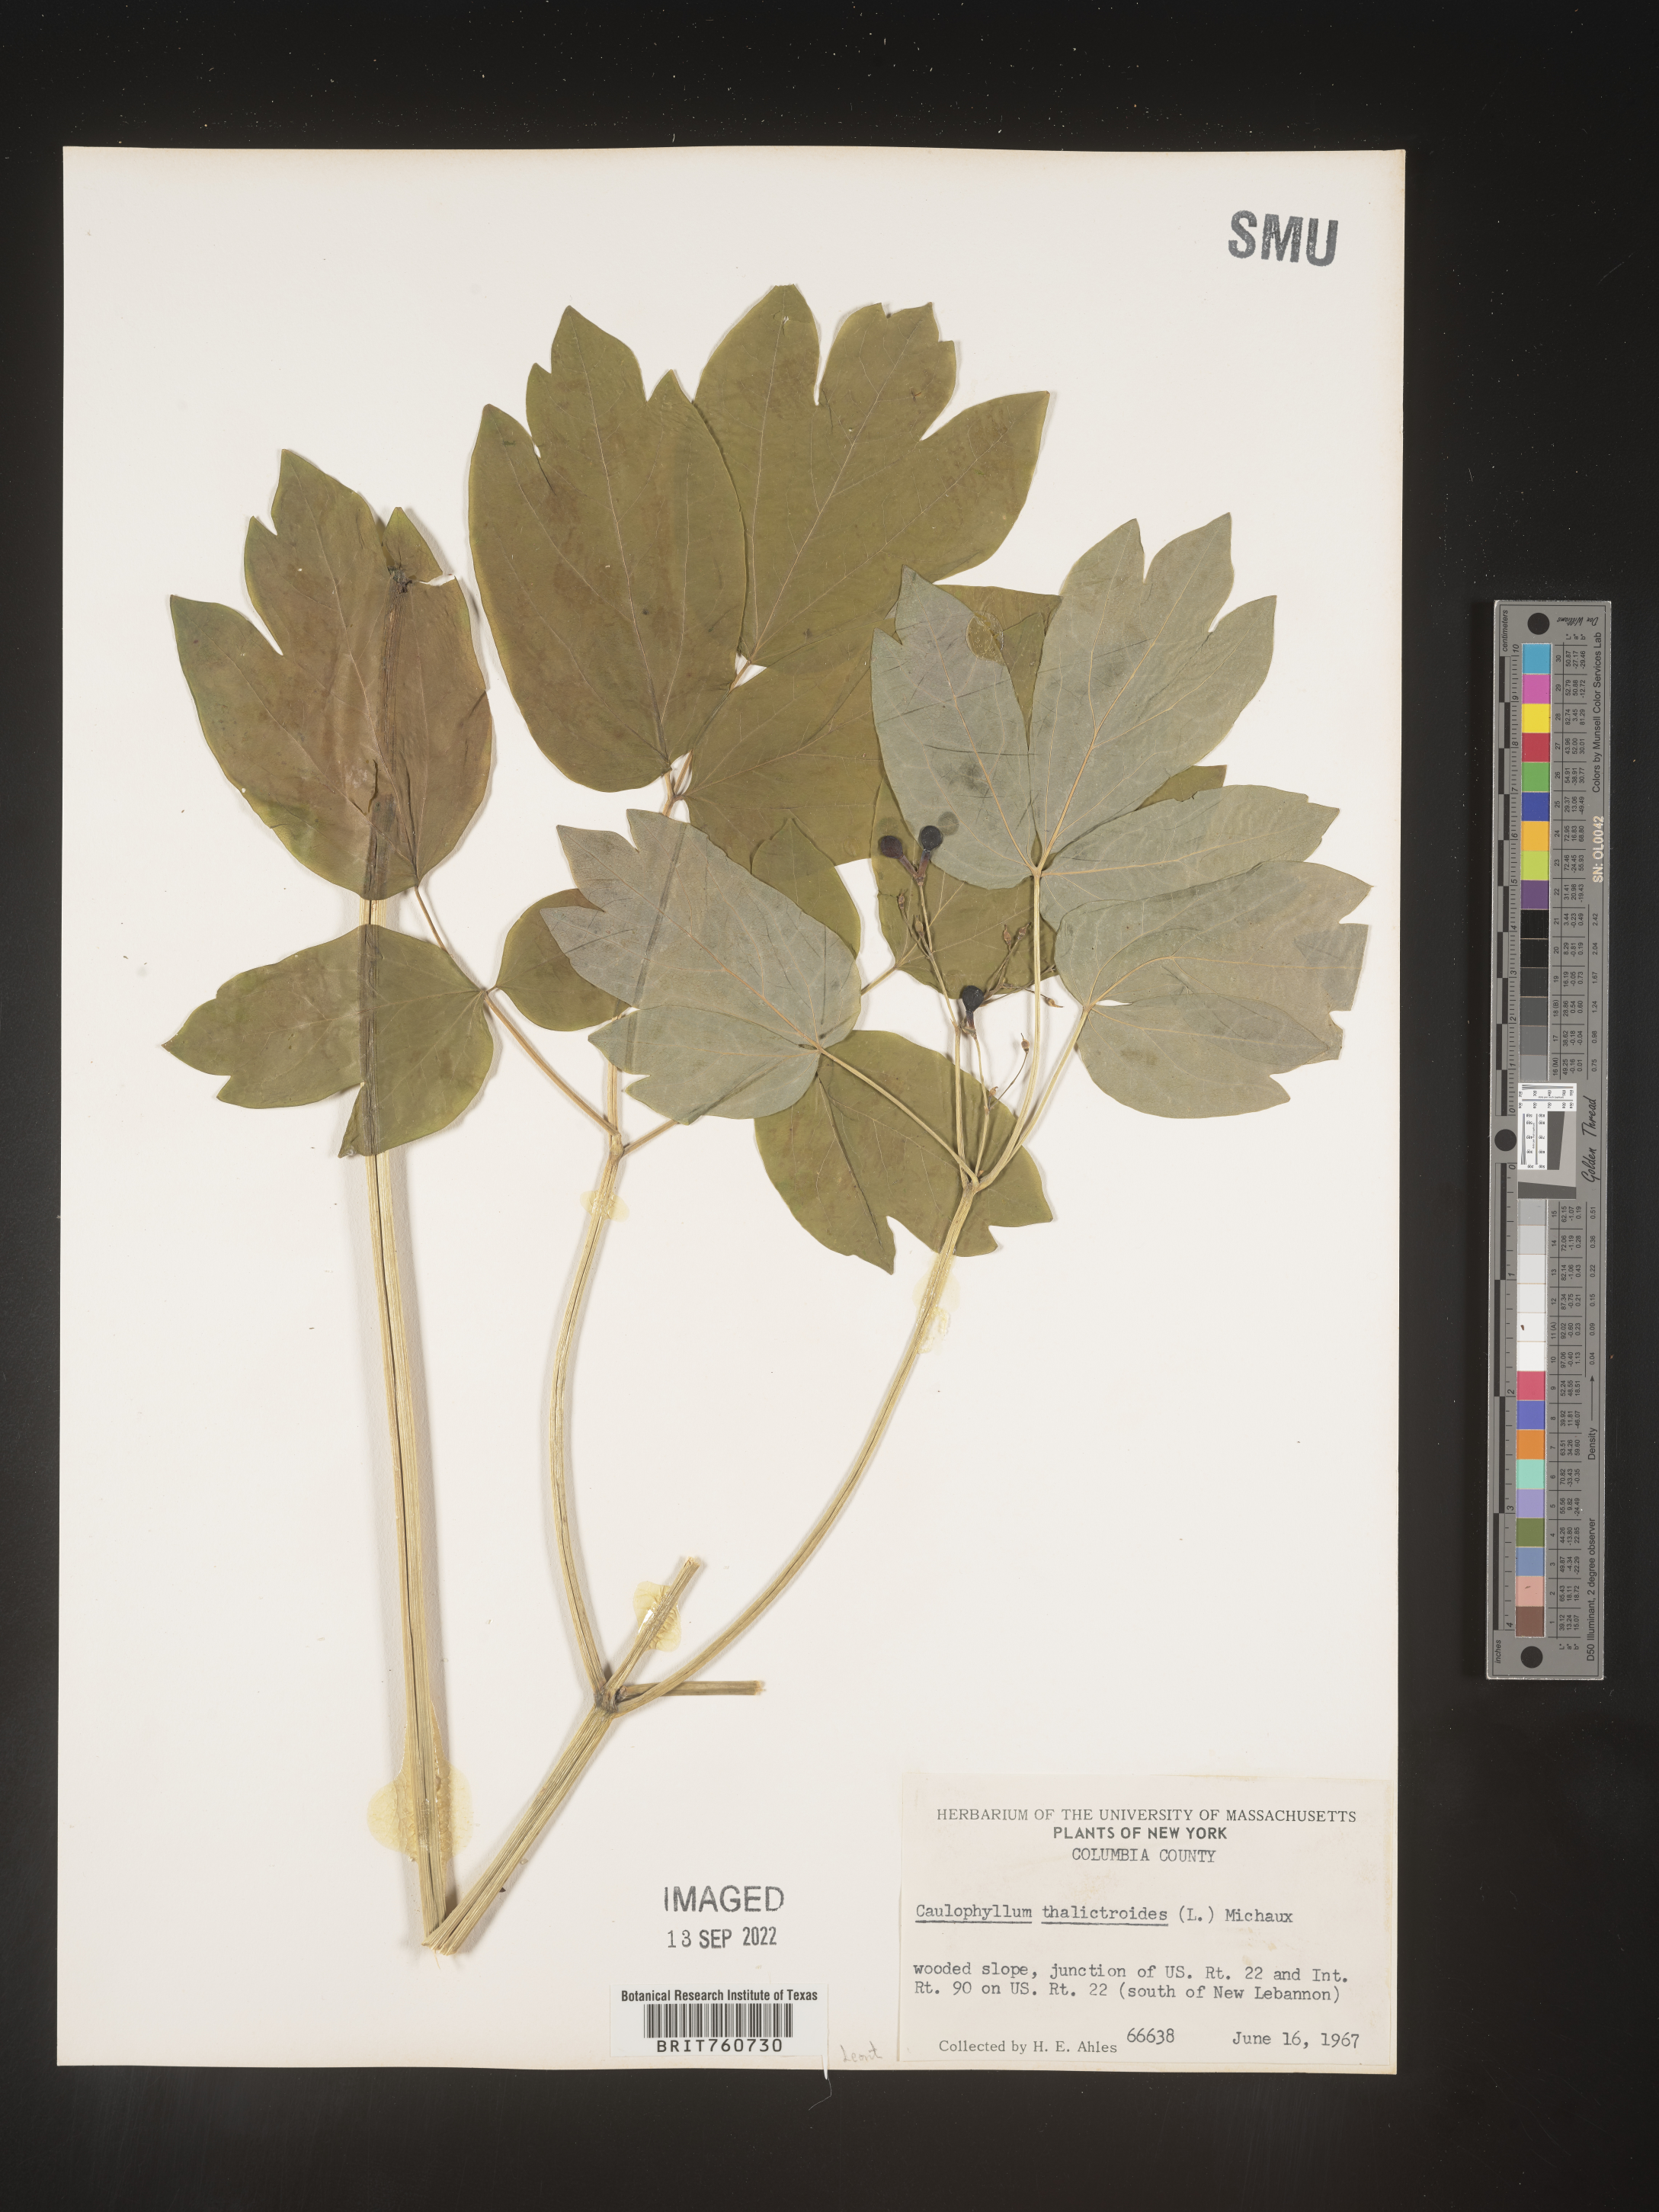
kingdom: Plantae
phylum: Tracheophyta
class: Magnoliopsida
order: Ranunculales
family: Berberidaceae
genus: Caulophyllum
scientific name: Caulophyllum thalictroides
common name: Blue cohosh
